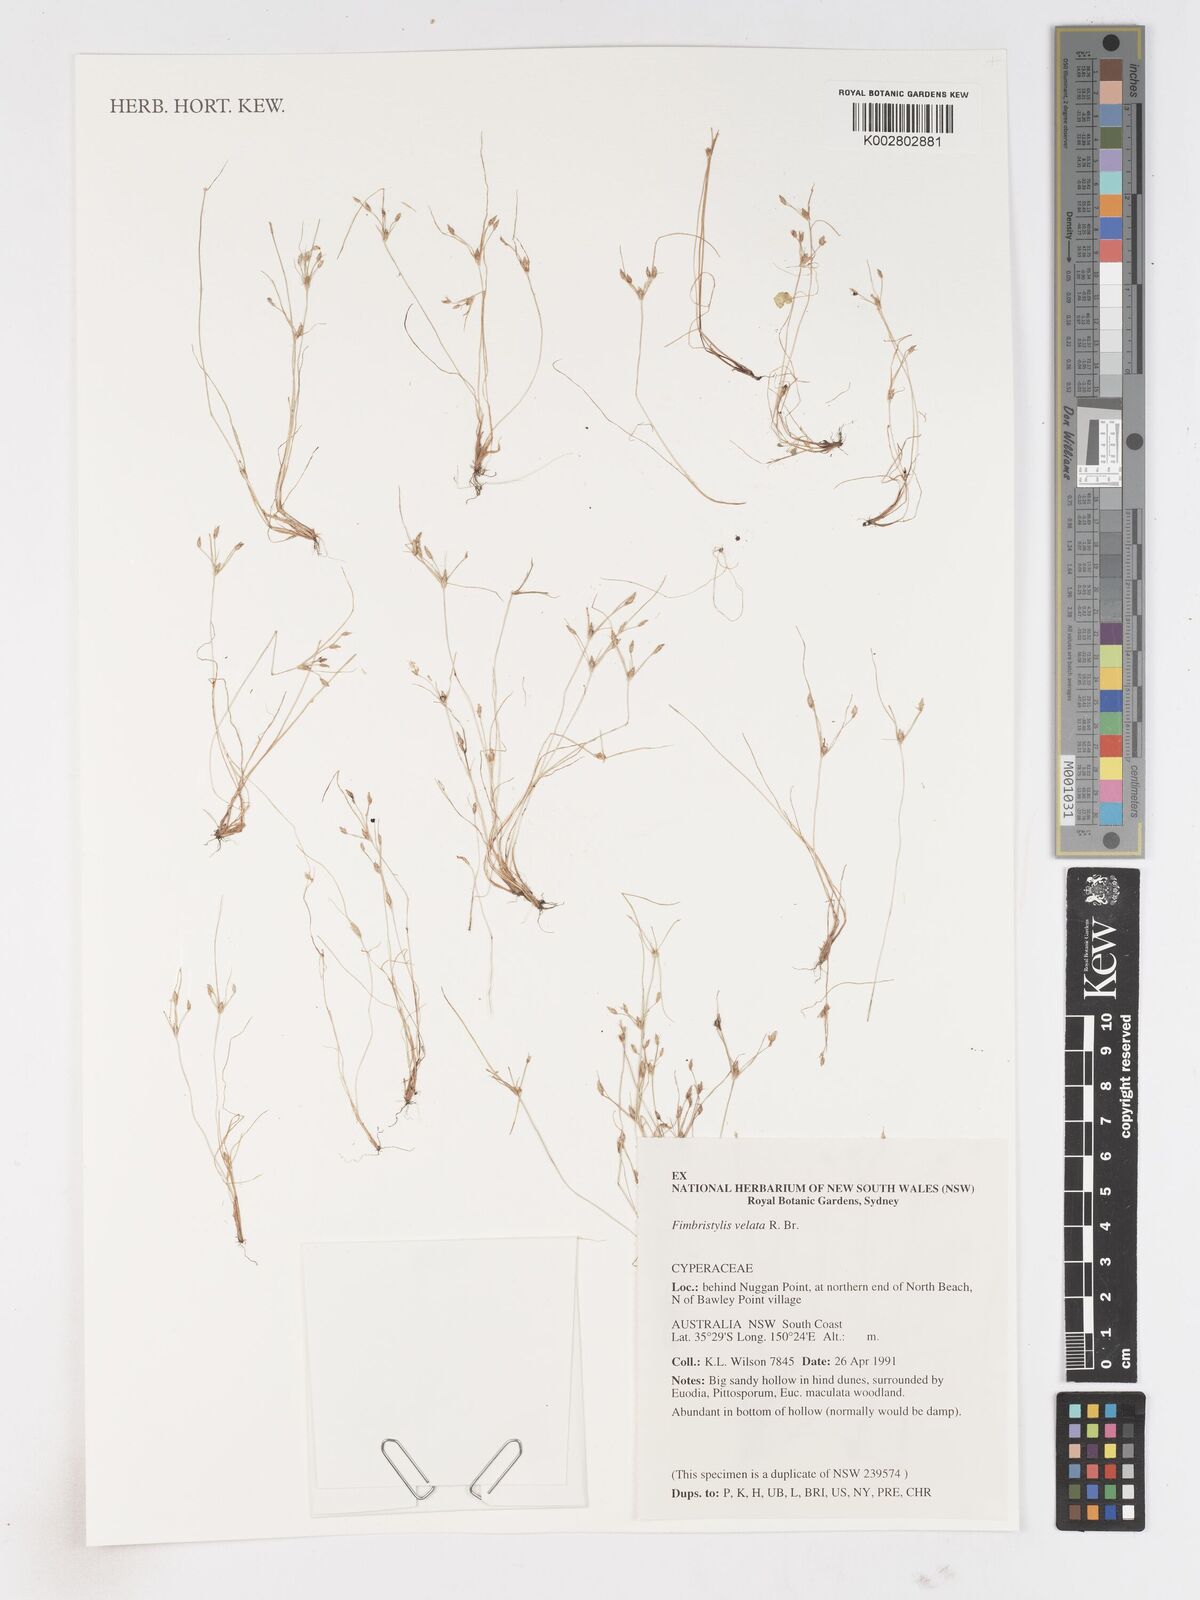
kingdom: Plantae
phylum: Tracheophyta
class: Liliopsida
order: Poales
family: Cyperaceae
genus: Fimbristylis
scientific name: Fimbristylis velata
